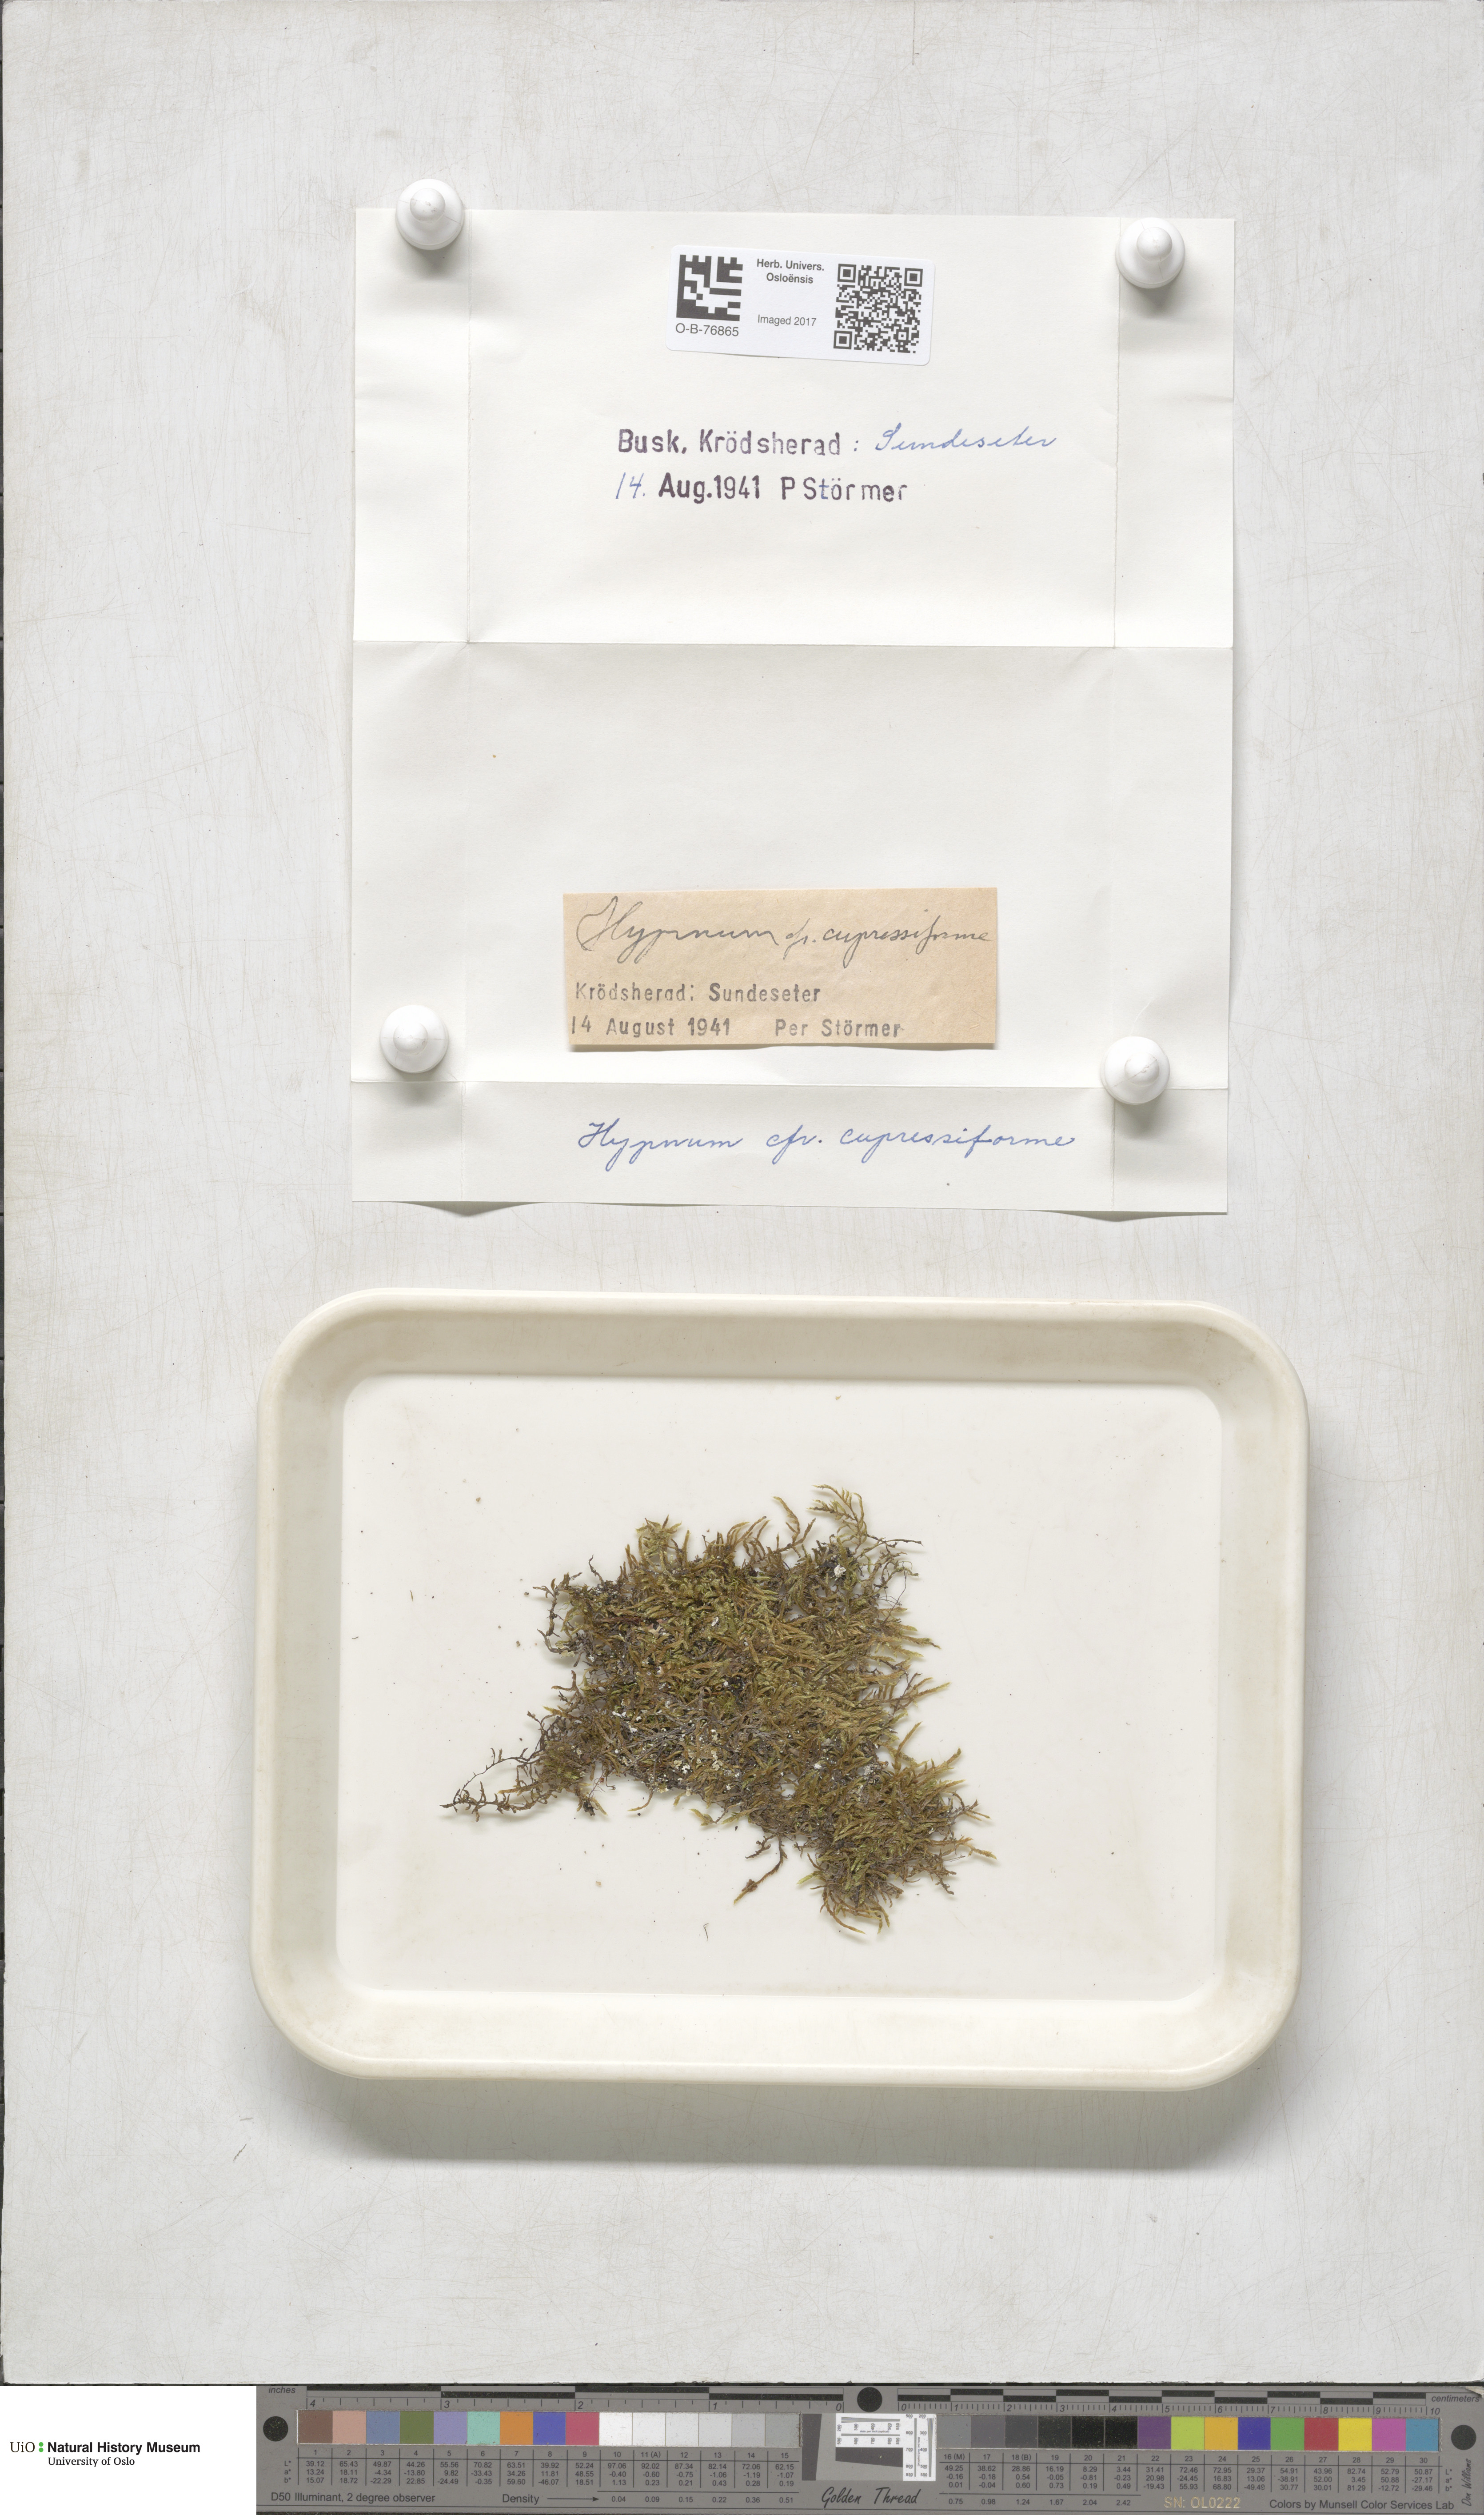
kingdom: Plantae
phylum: Bryophyta
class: Bryopsida
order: Hypnales
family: Hypnaceae
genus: Hypnum
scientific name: Hypnum cupressiforme
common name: Cypress-leaved plait-moss
